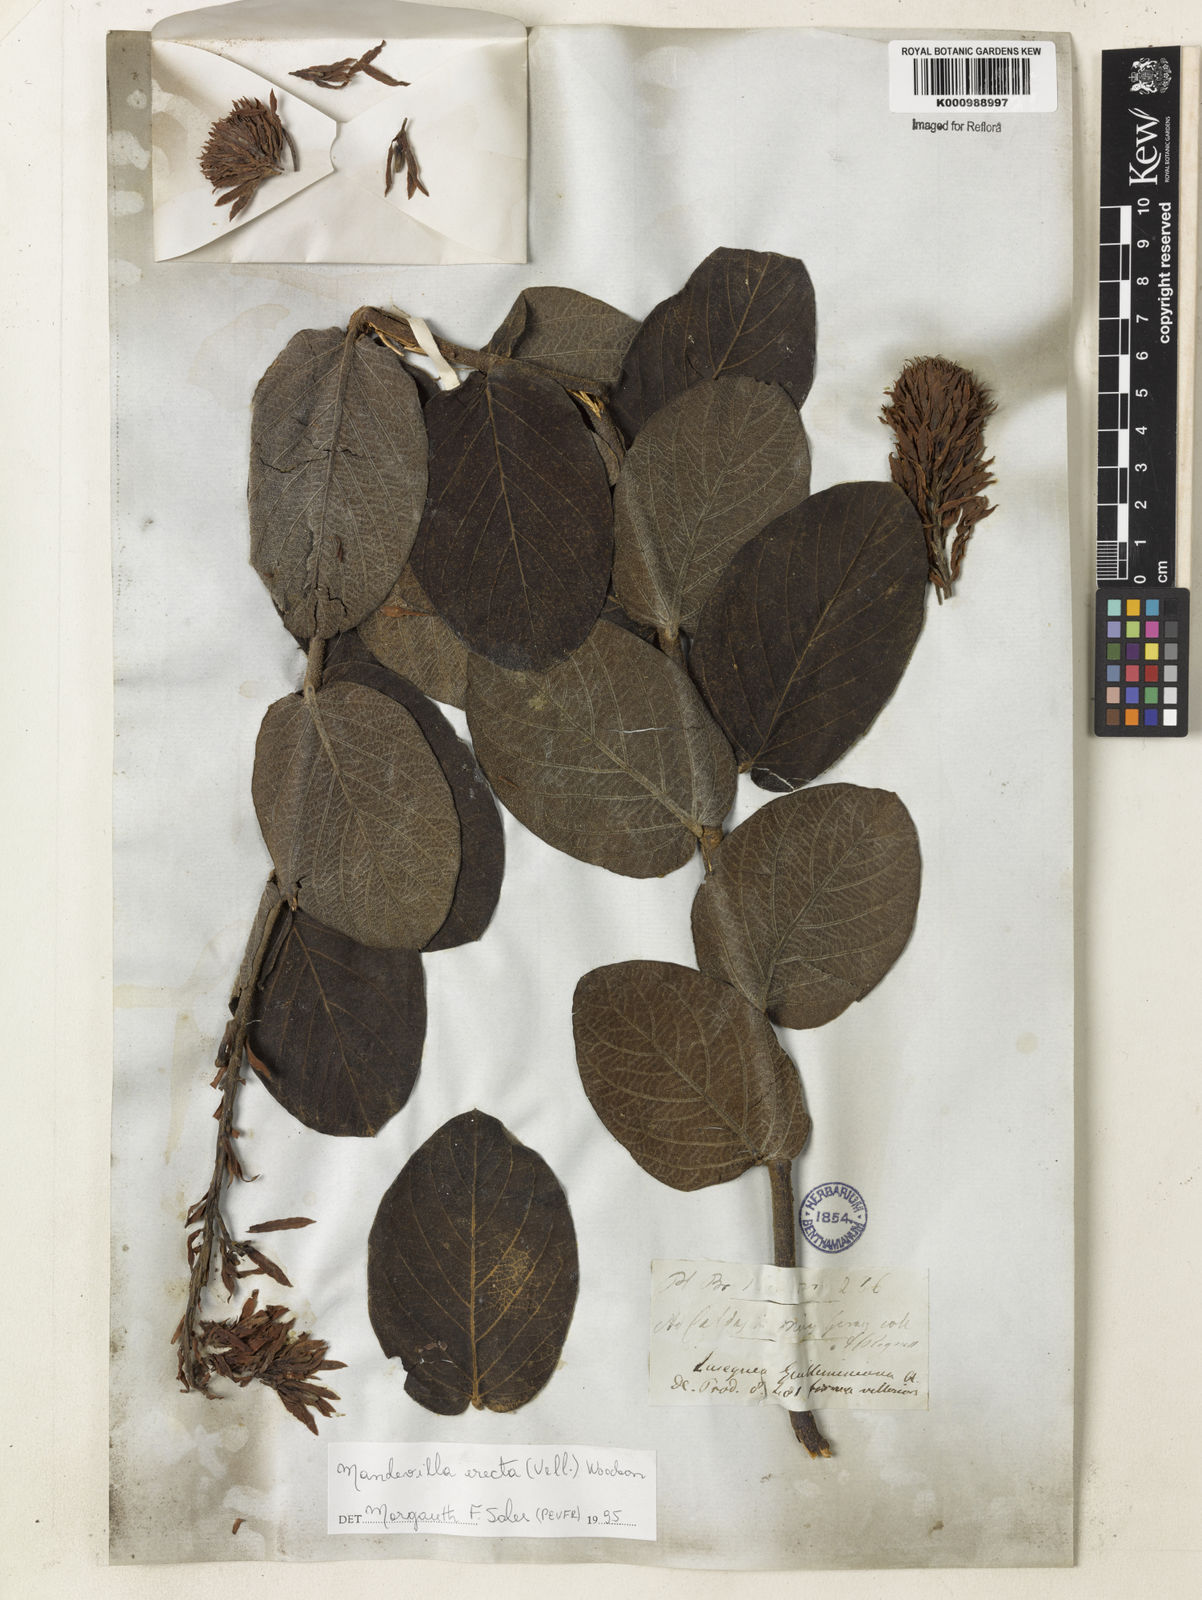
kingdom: Plantae
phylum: Tracheophyta
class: Magnoliopsida
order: Gentianales
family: Apocynaceae
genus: Mandevilla
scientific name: Mandevilla emarginata
